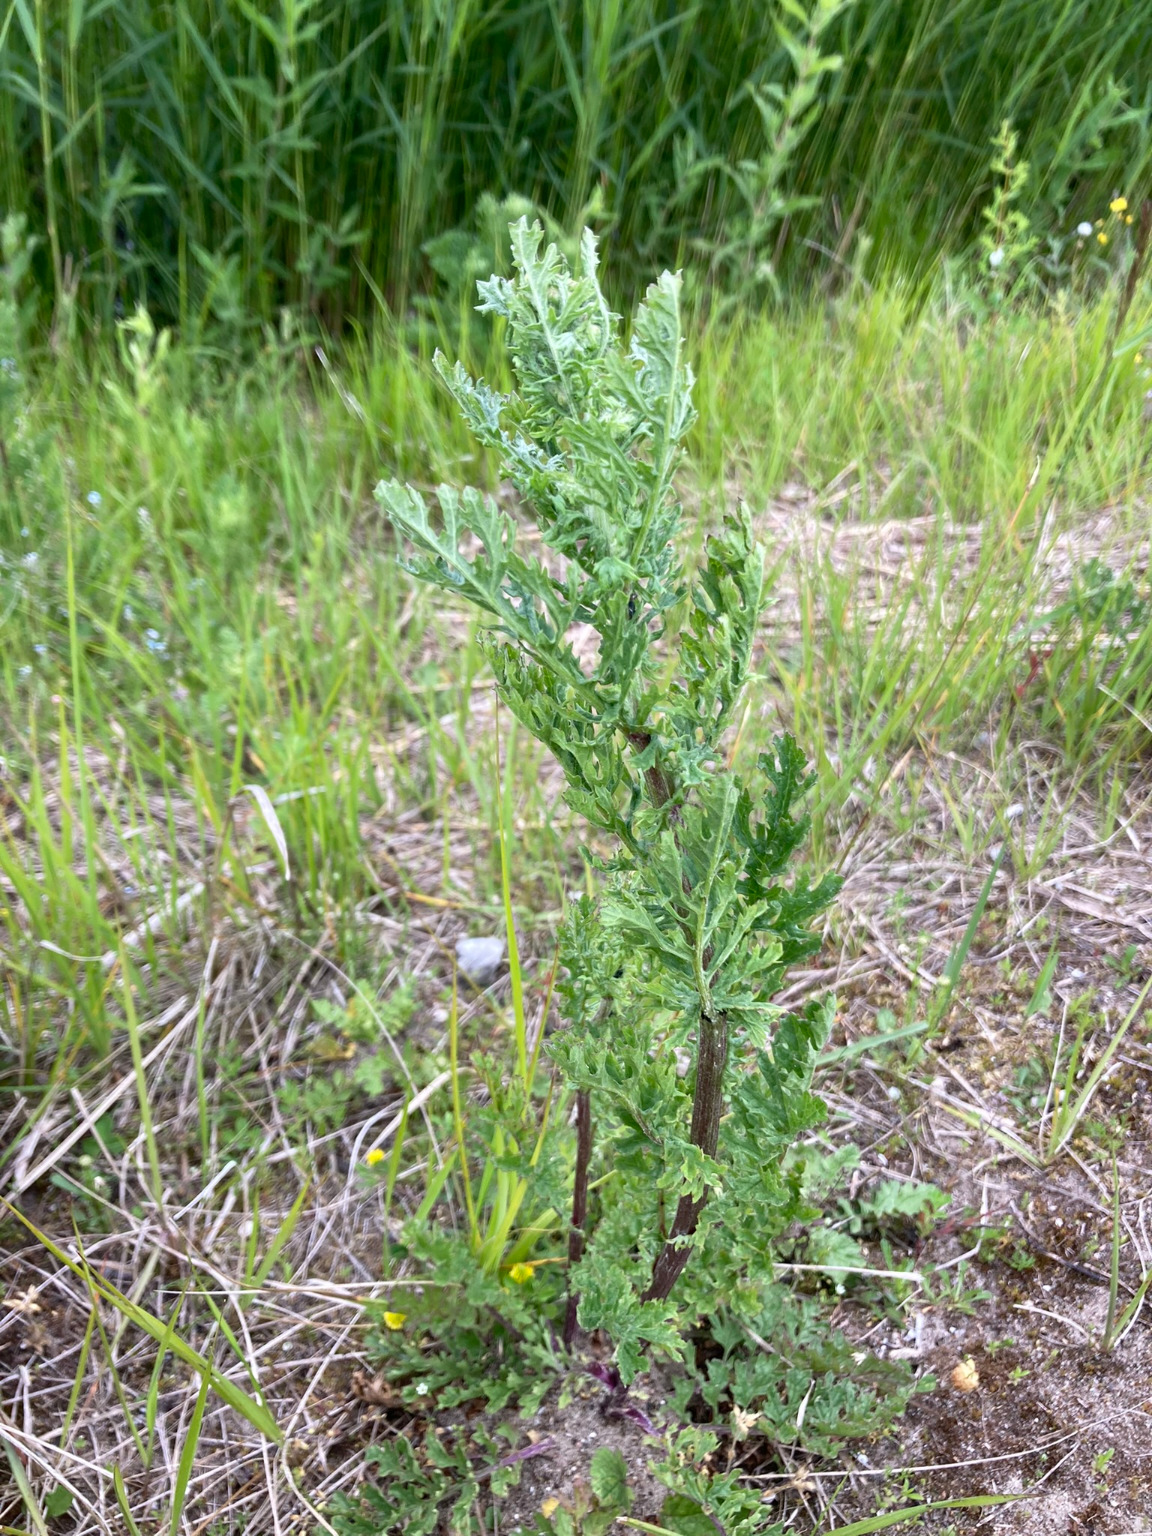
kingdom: Plantae
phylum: Tracheophyta
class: Magnoliopsida
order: Asterales
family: Asteraceae
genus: Jacobaea
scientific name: Jacobaea vulgaris
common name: Eng-brandbæger
